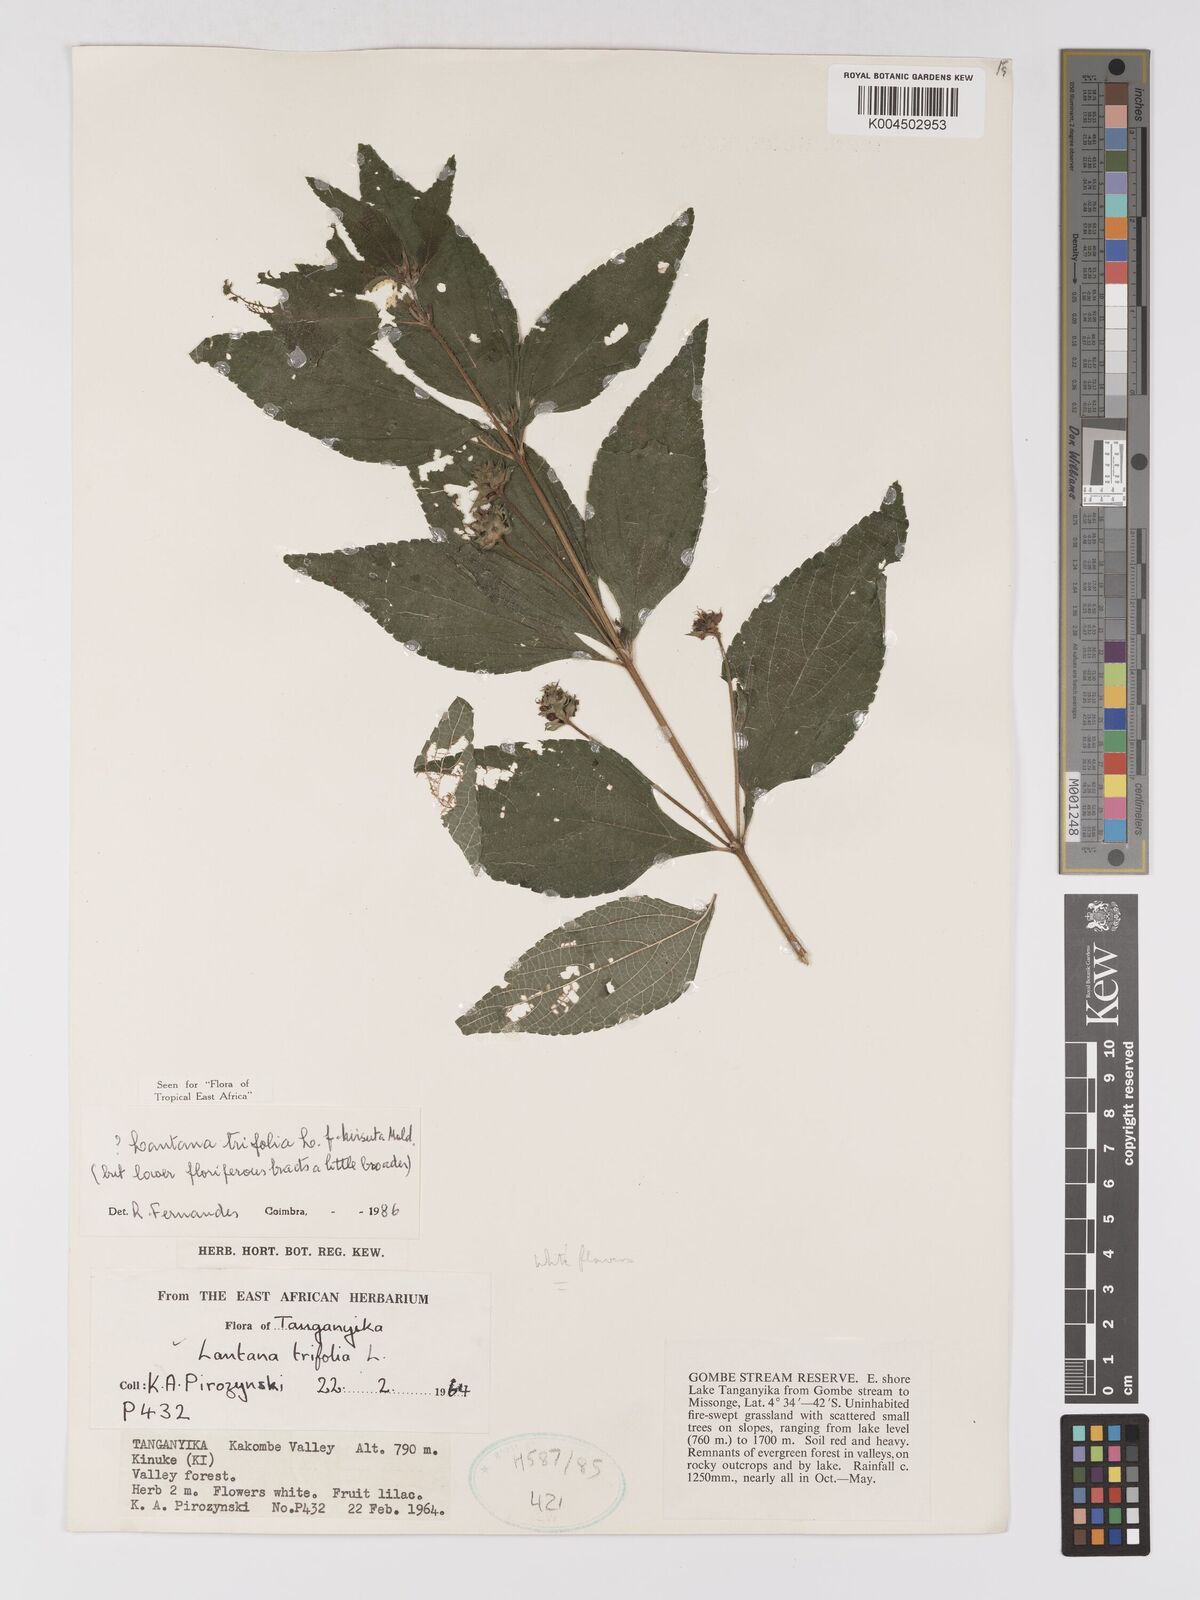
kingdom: Plantae
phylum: Tracheophyta
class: Magnoliopsida
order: Lamiales
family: Verbenaceae
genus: Lantana
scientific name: Lantana trifolia
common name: Sweet-sage
